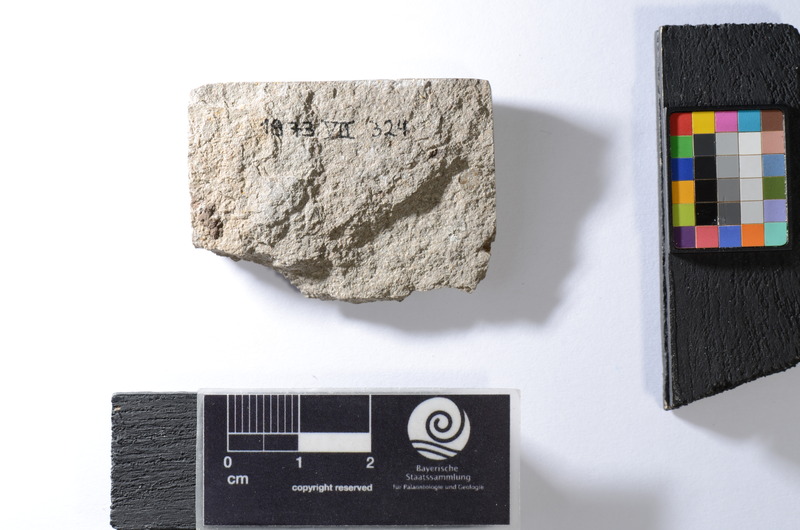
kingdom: Animalia
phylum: Chordata
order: Clupeiformes
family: Clupeidae
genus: Sprattus
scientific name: Sprattus Meletta sardinites
